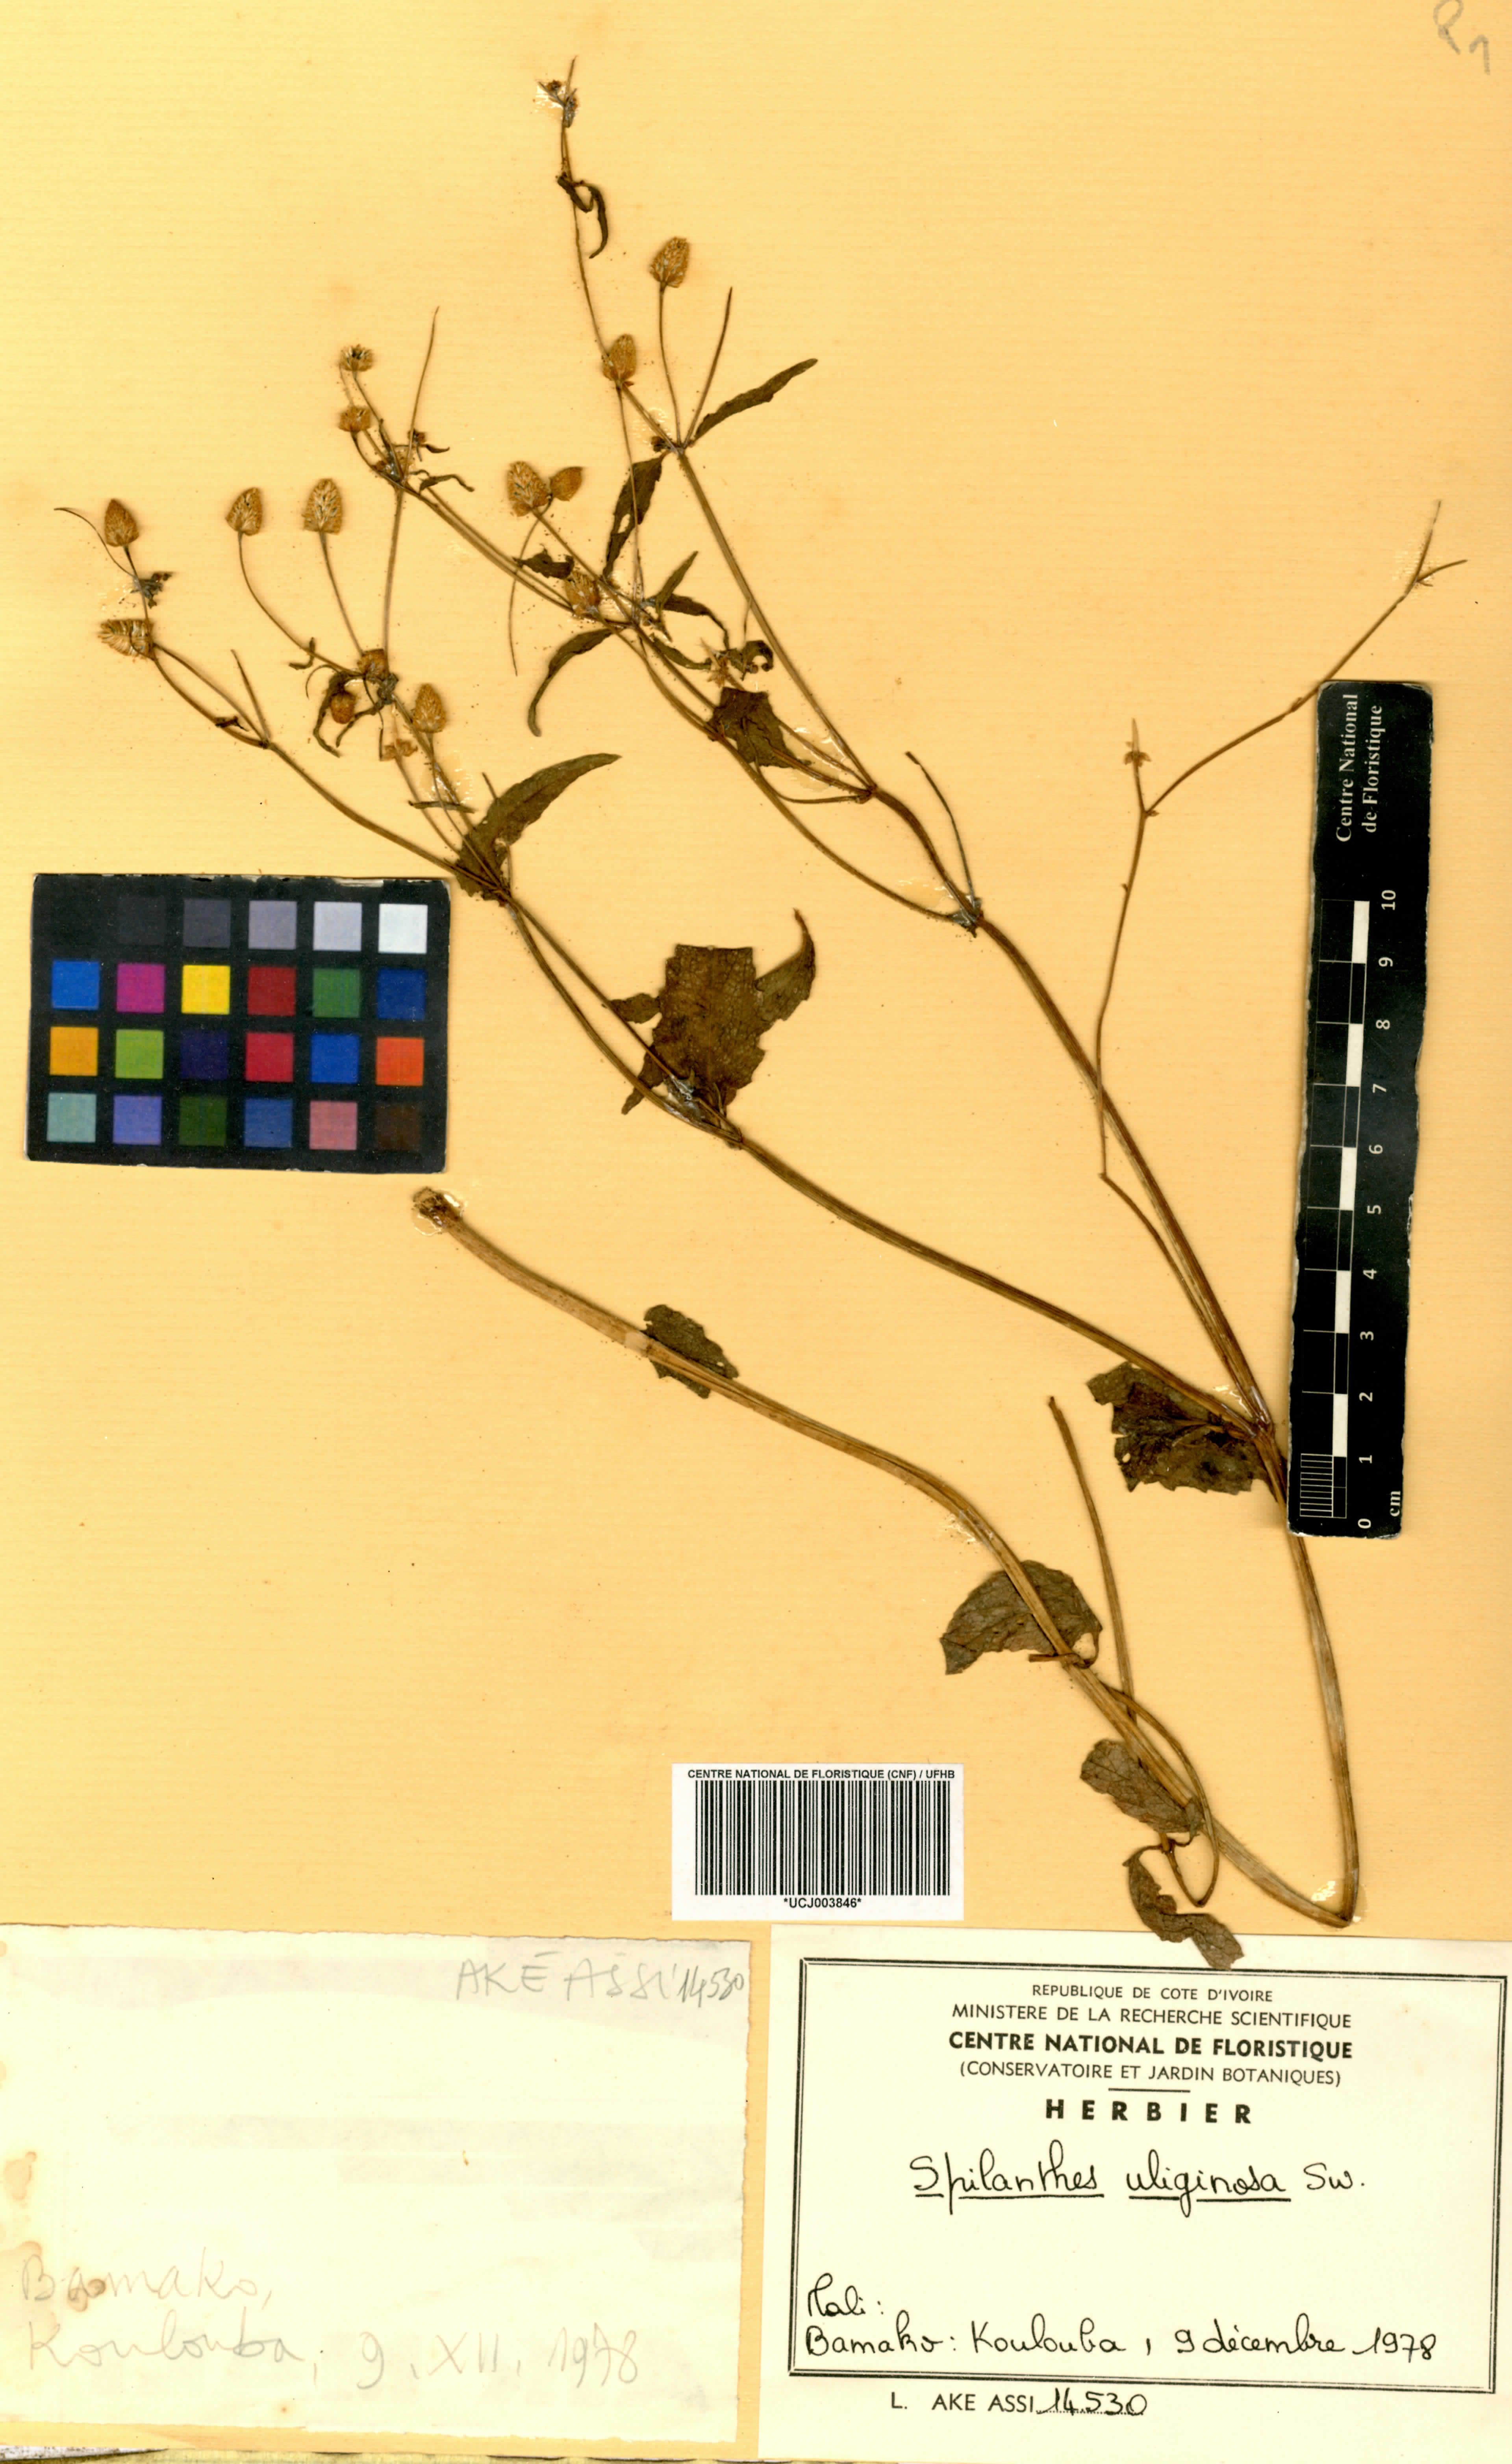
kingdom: Plantae
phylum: Tracheophyta
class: Magnoliopsida
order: Asterales
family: Asteraceae
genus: Acmella
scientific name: Acmella uliginosa
